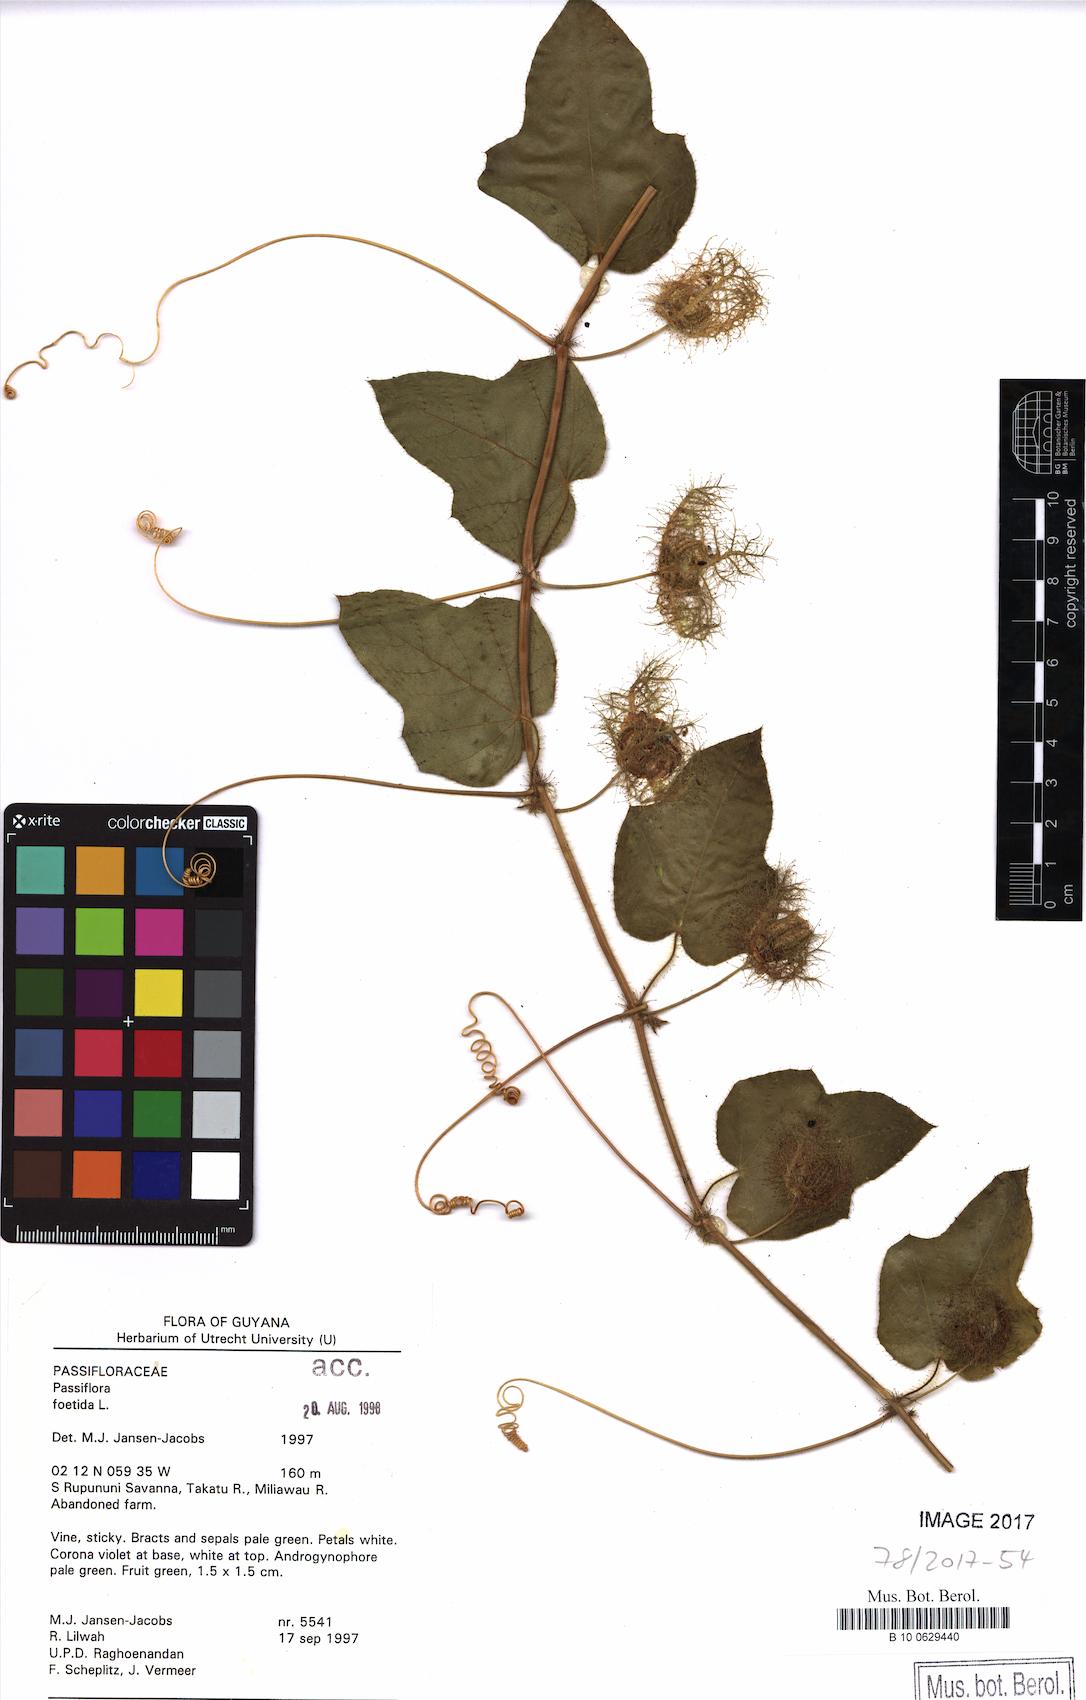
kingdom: Plantae
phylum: Tracheophyta
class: Magnoliopsida
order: Malpighiales
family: Passifloraceae
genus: Passiflora
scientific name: Passiflora foetida
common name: Fetid passionflower
